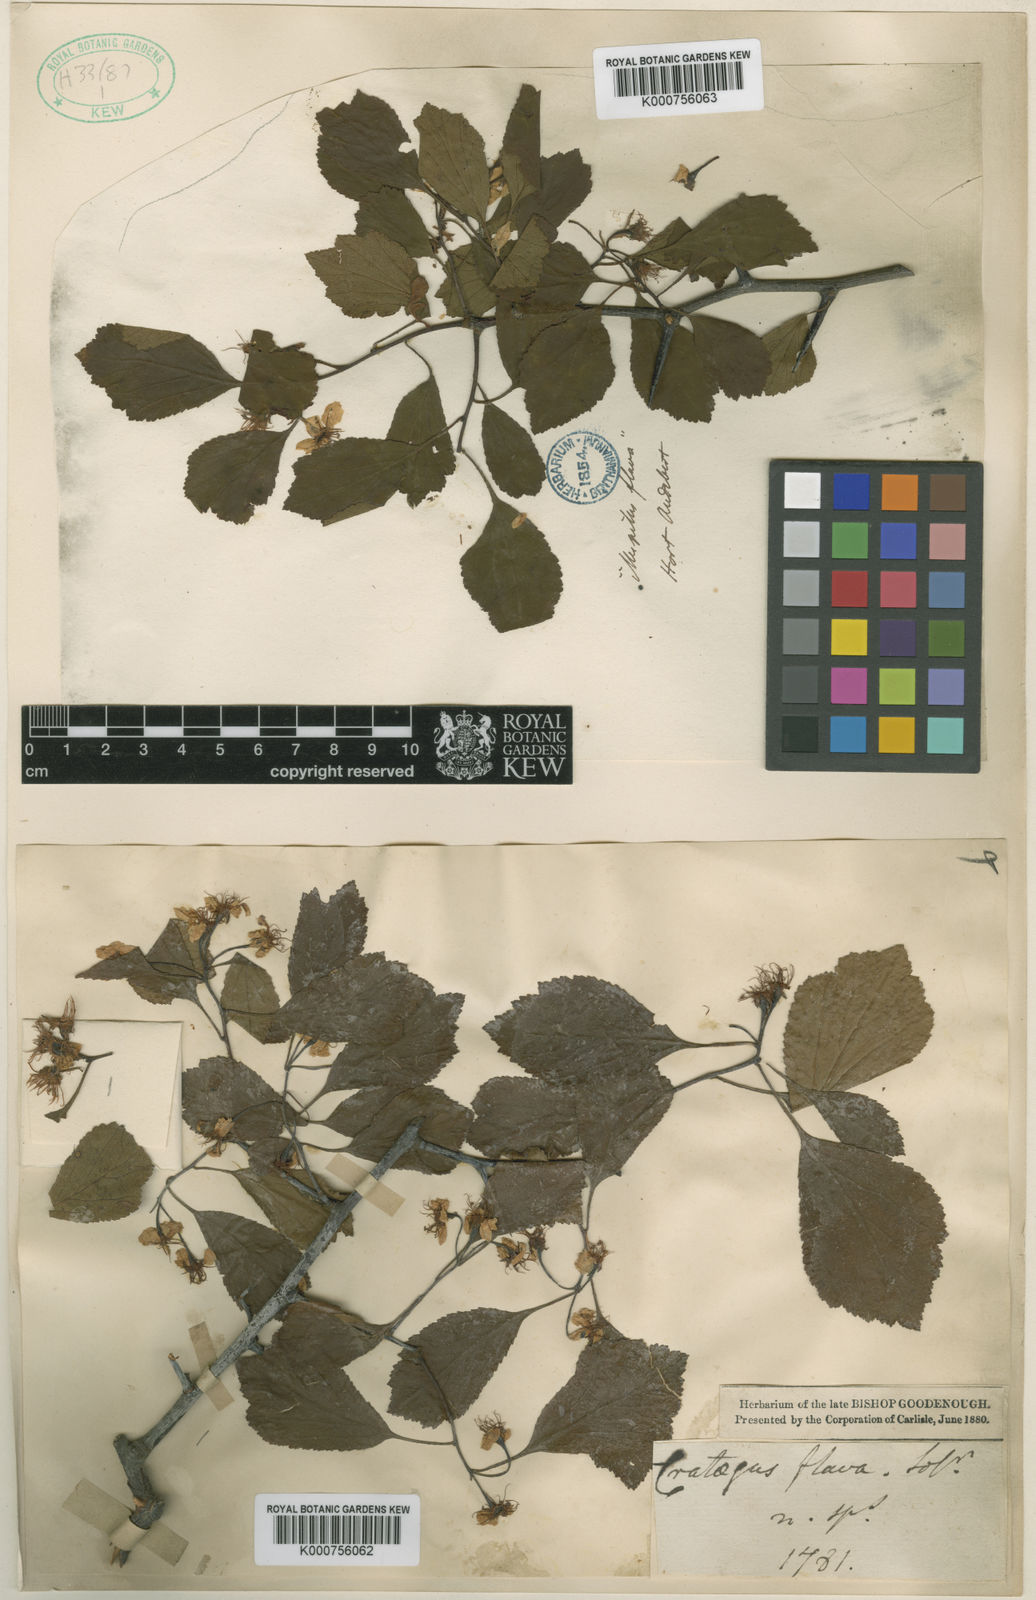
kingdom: Plantae
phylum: Tracheophyta
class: Magnoliopsida
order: Rosales
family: Rosaceae
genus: Crataegus
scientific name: Crataegus flava
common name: Yellow hawthorn
